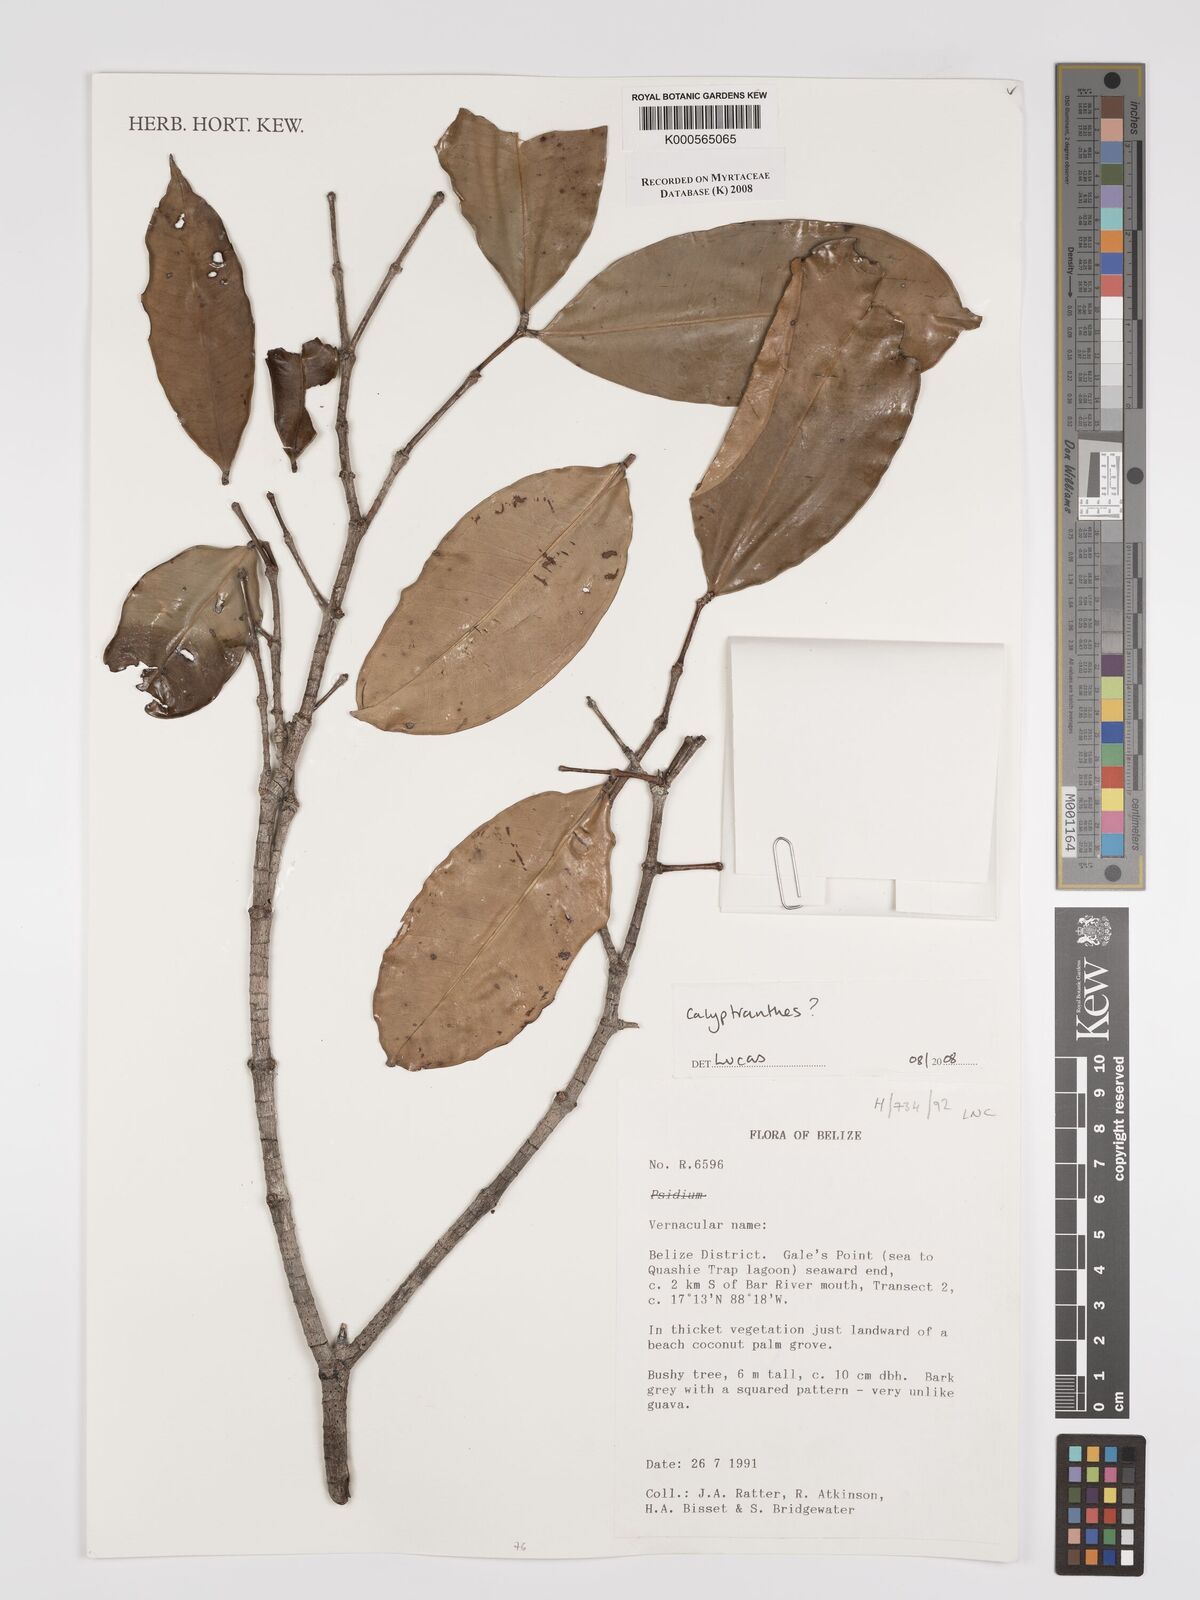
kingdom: Plantae
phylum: Tracheophyta
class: Magnoliopsida
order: Myrtales
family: Myrtaceae
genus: Calyptranthes
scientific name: Calyptranthes
